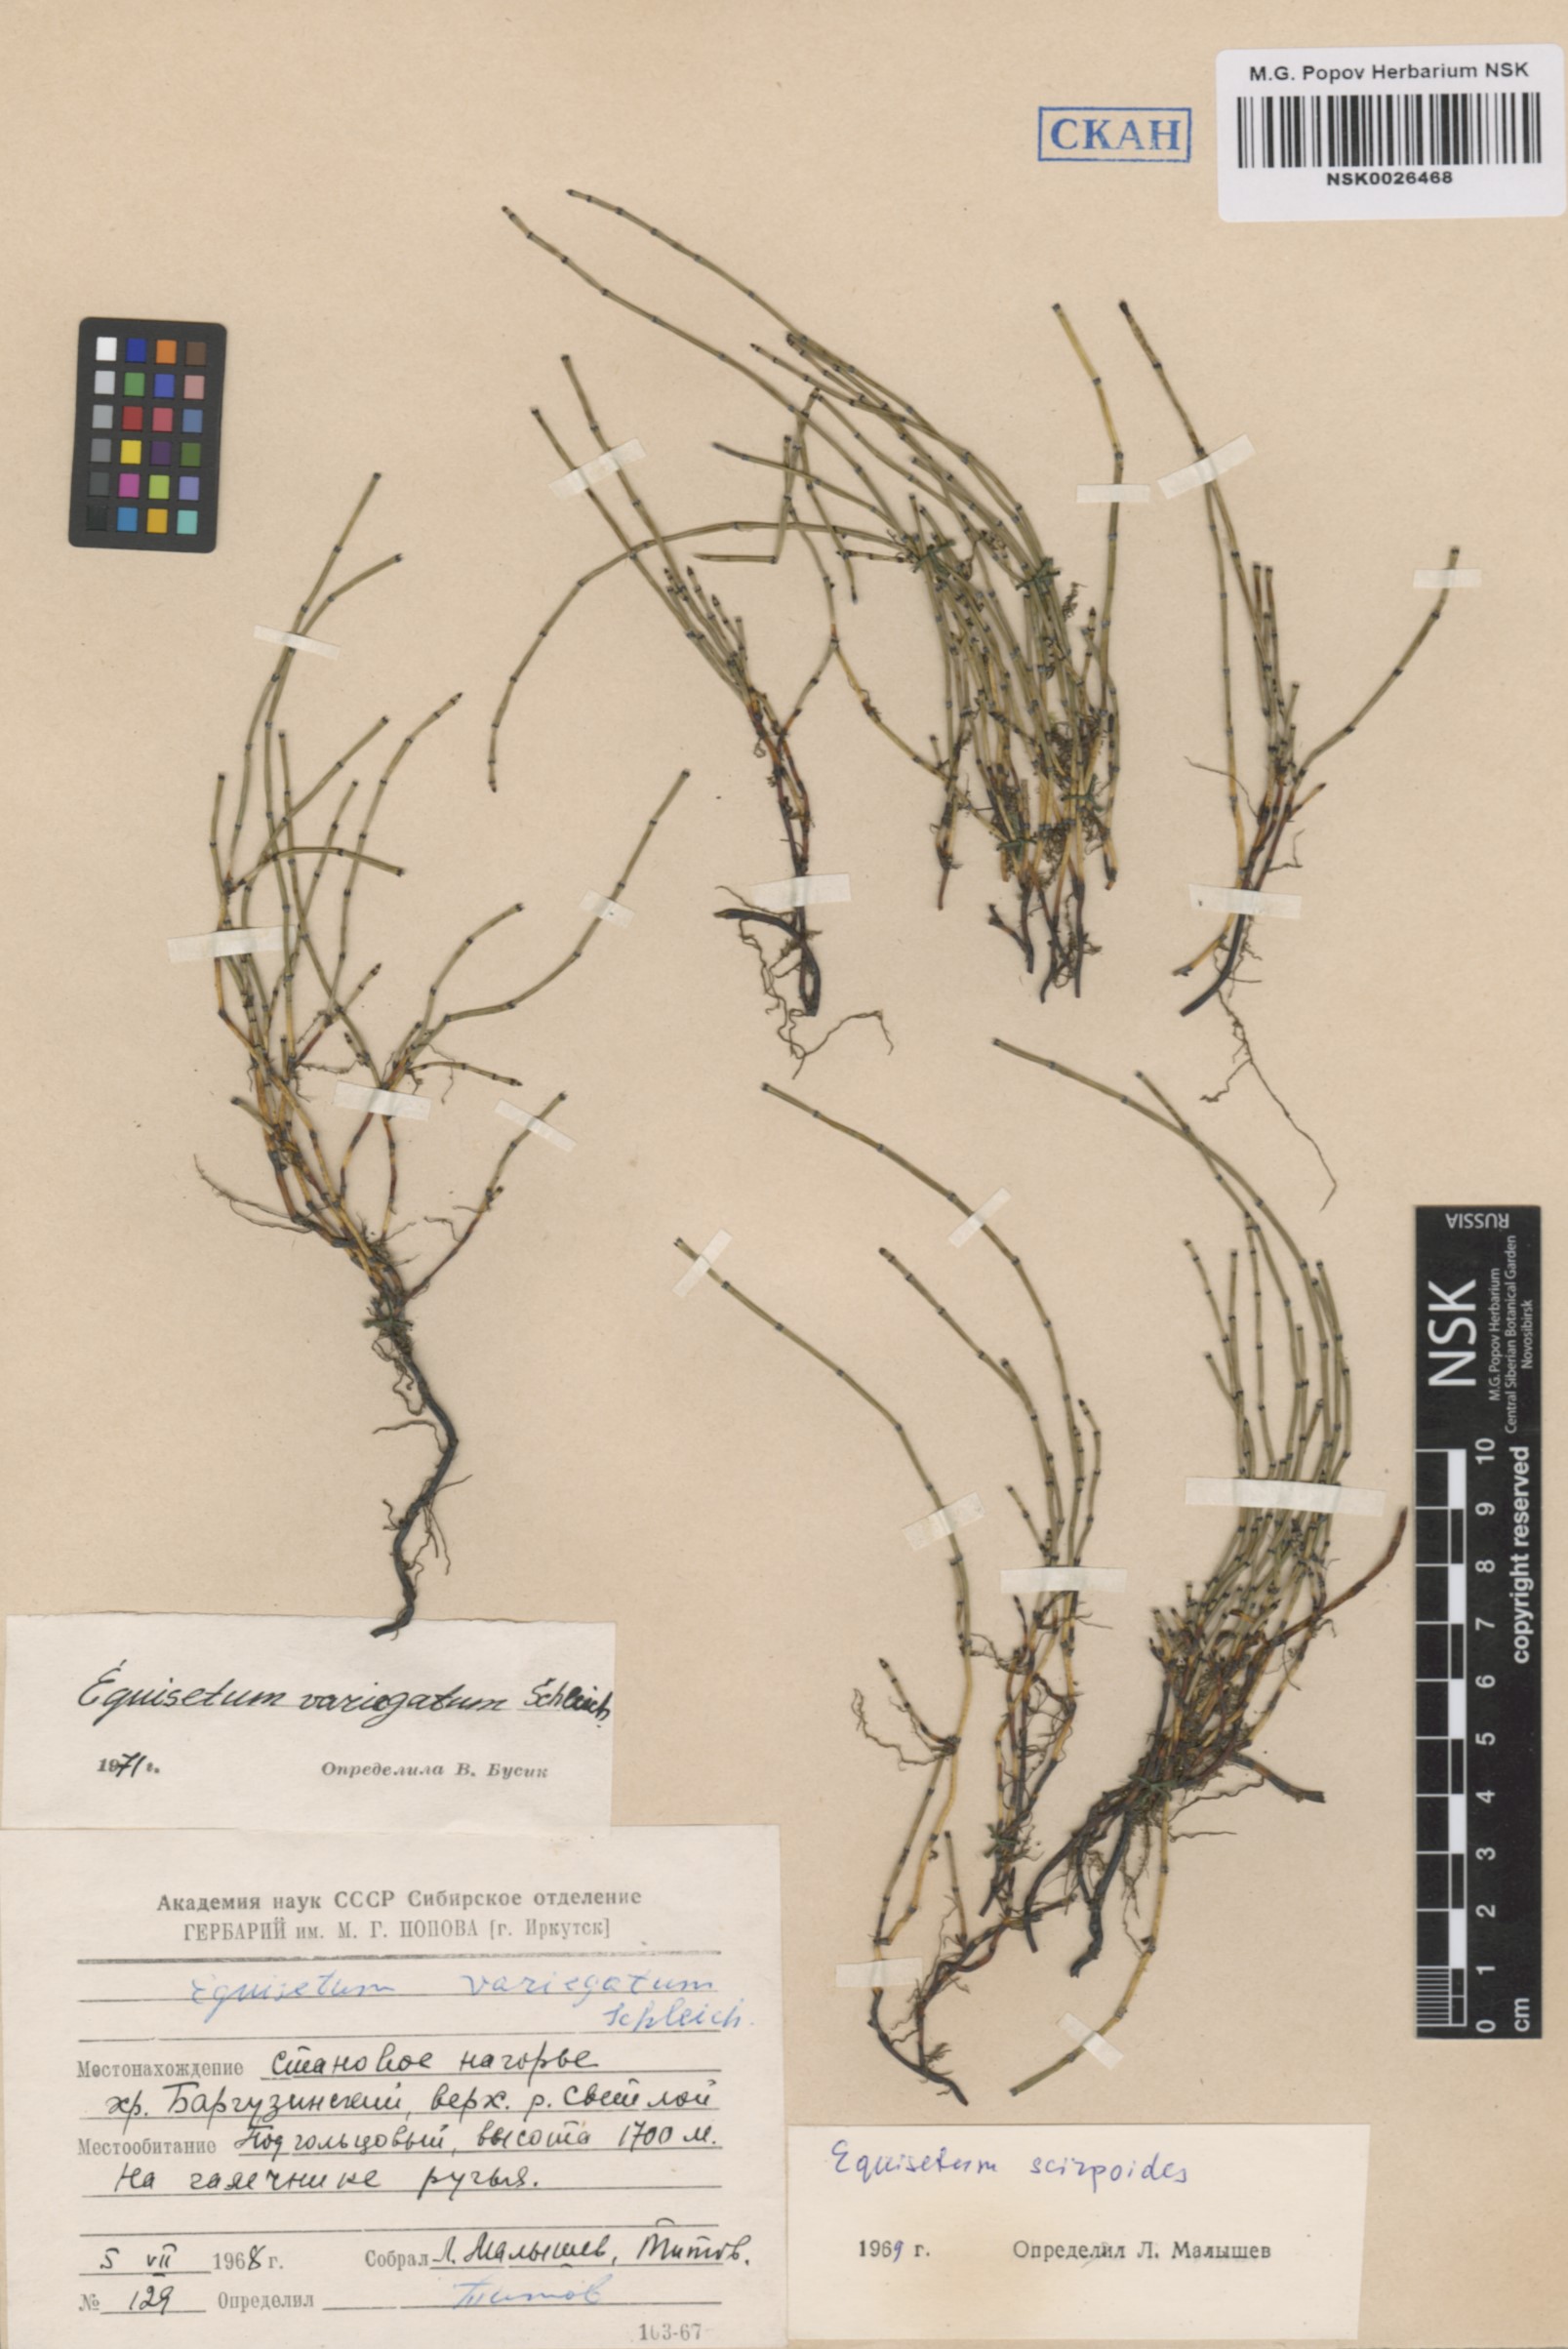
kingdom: Plantae
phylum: Tracheophyta
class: Polypodiopsida
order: Equisetales
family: Equisetaceae
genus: Equisetum
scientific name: Equisetum variegatum
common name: Variegated horsetail
